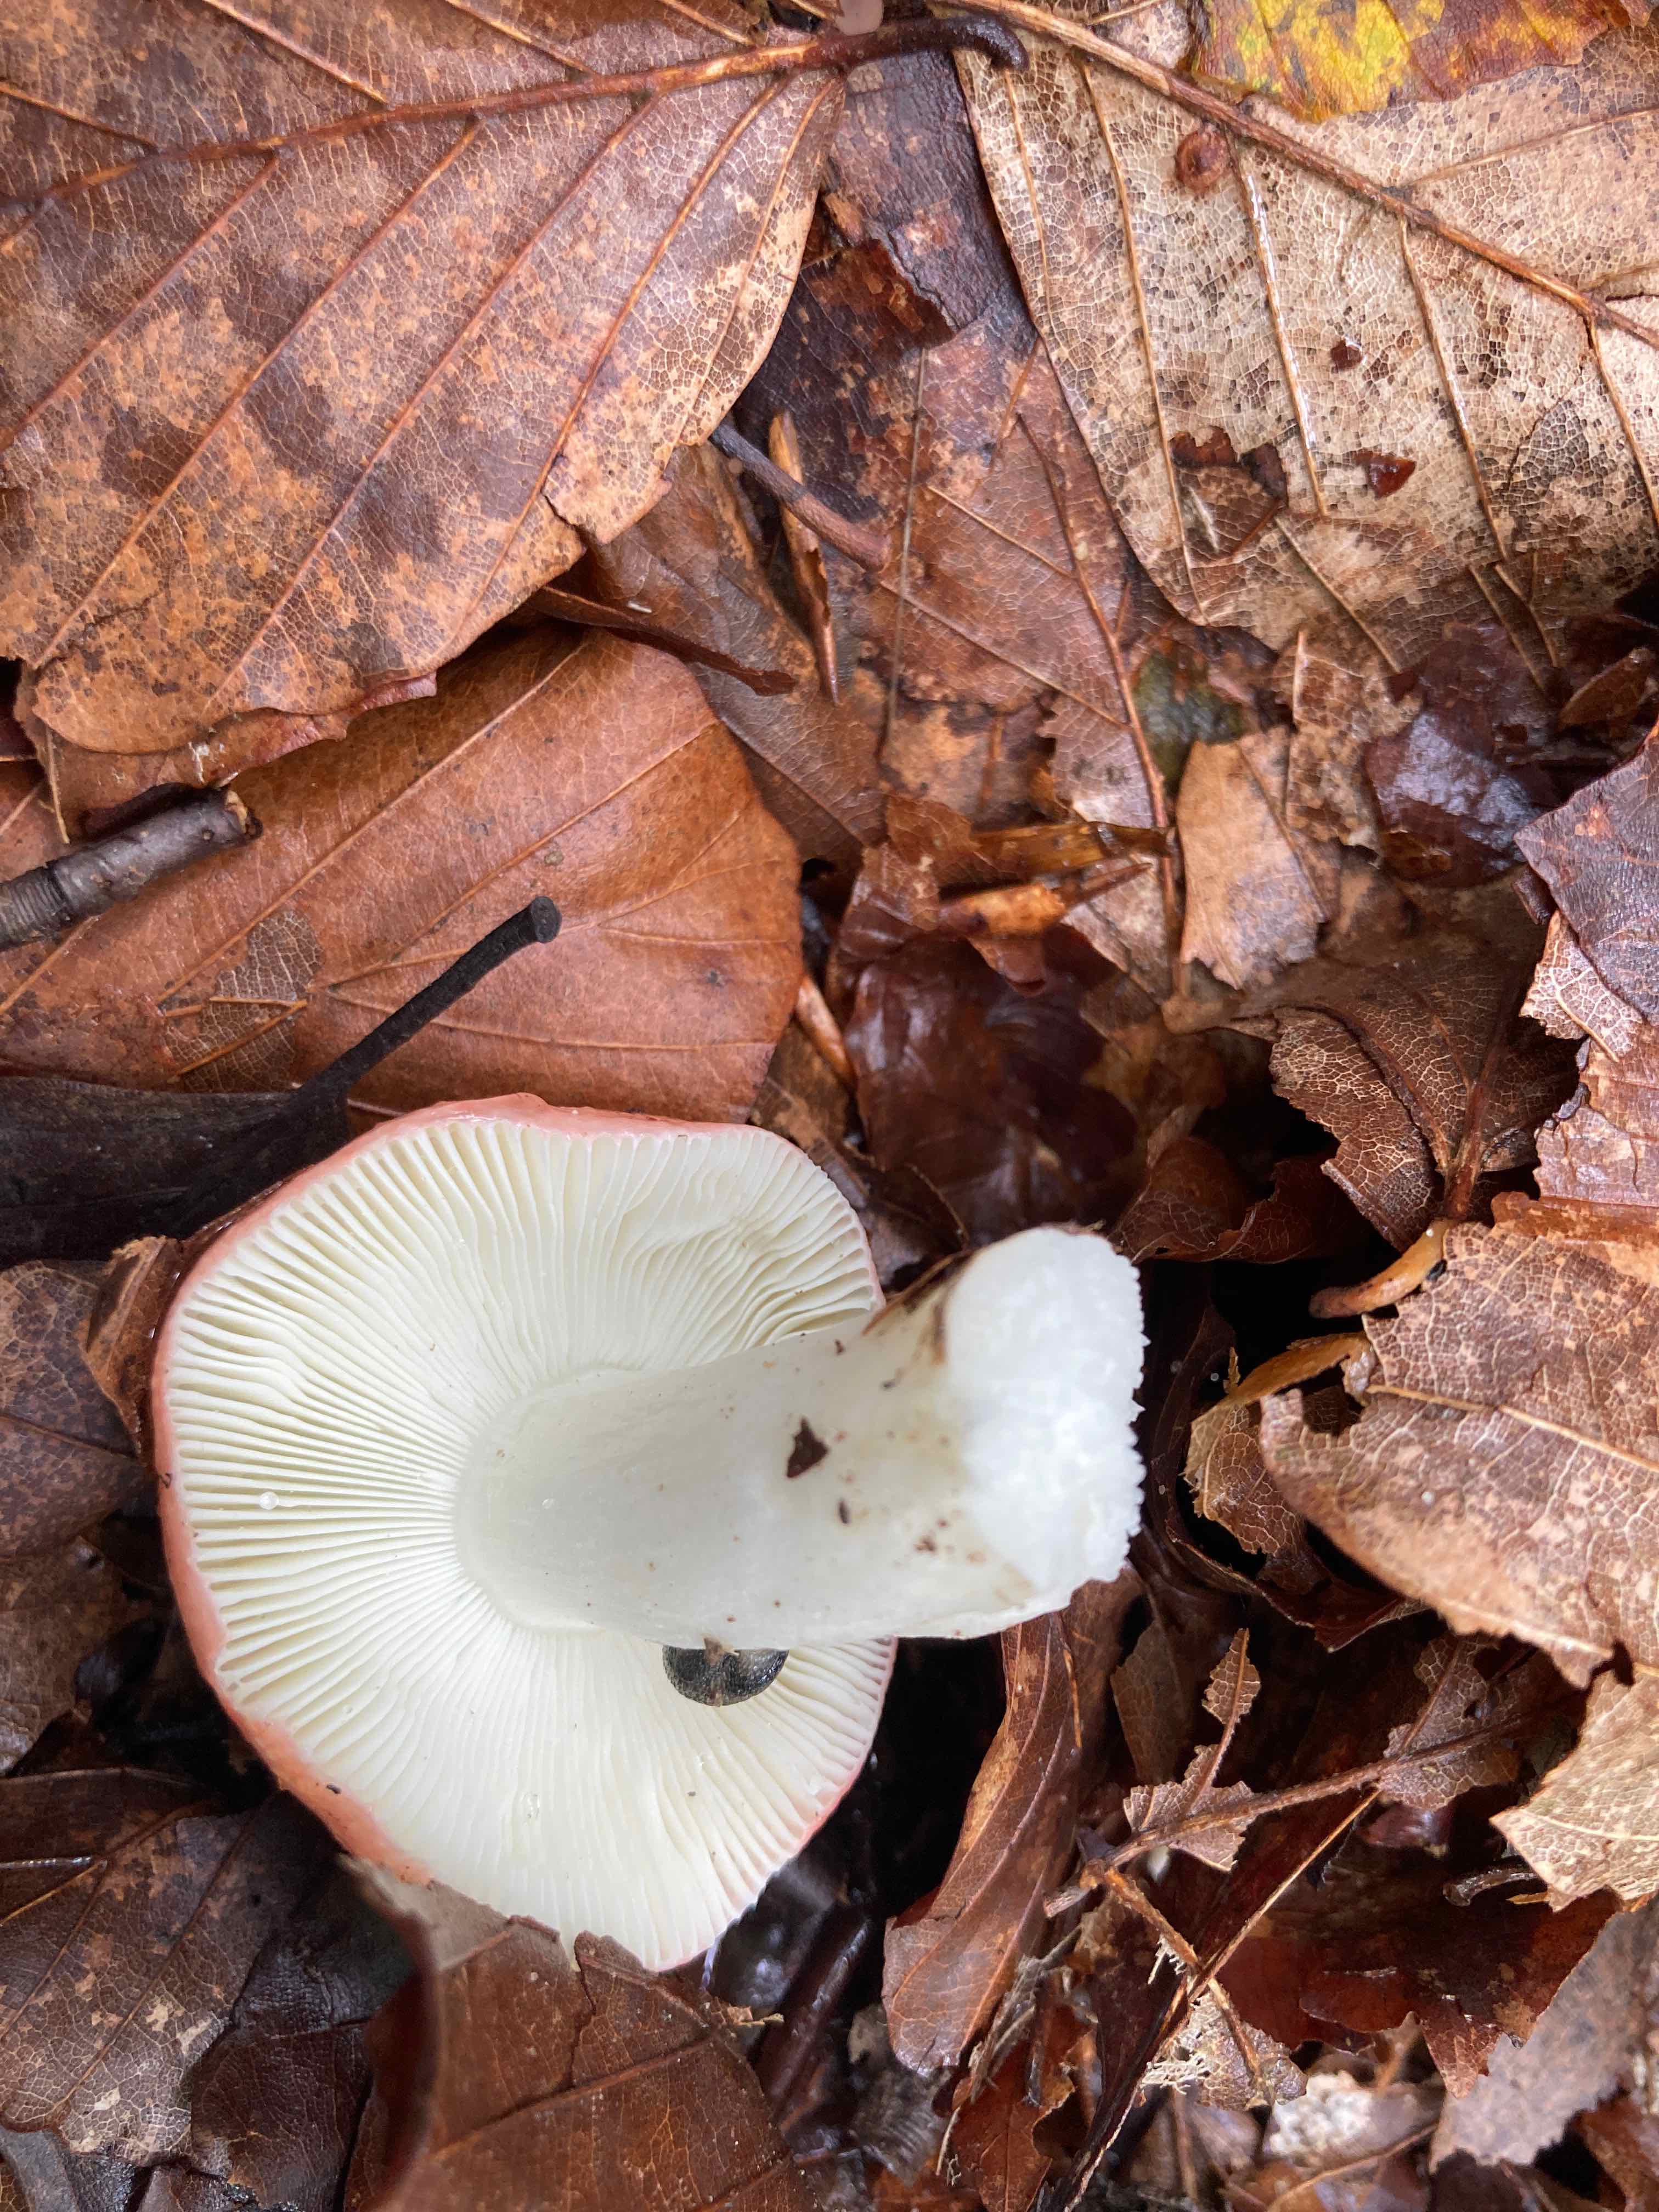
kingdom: Fungi
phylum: Basidiomycota
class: Agaricomycetes
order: Russulales
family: Russulaceae
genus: Russula
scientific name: Russula
